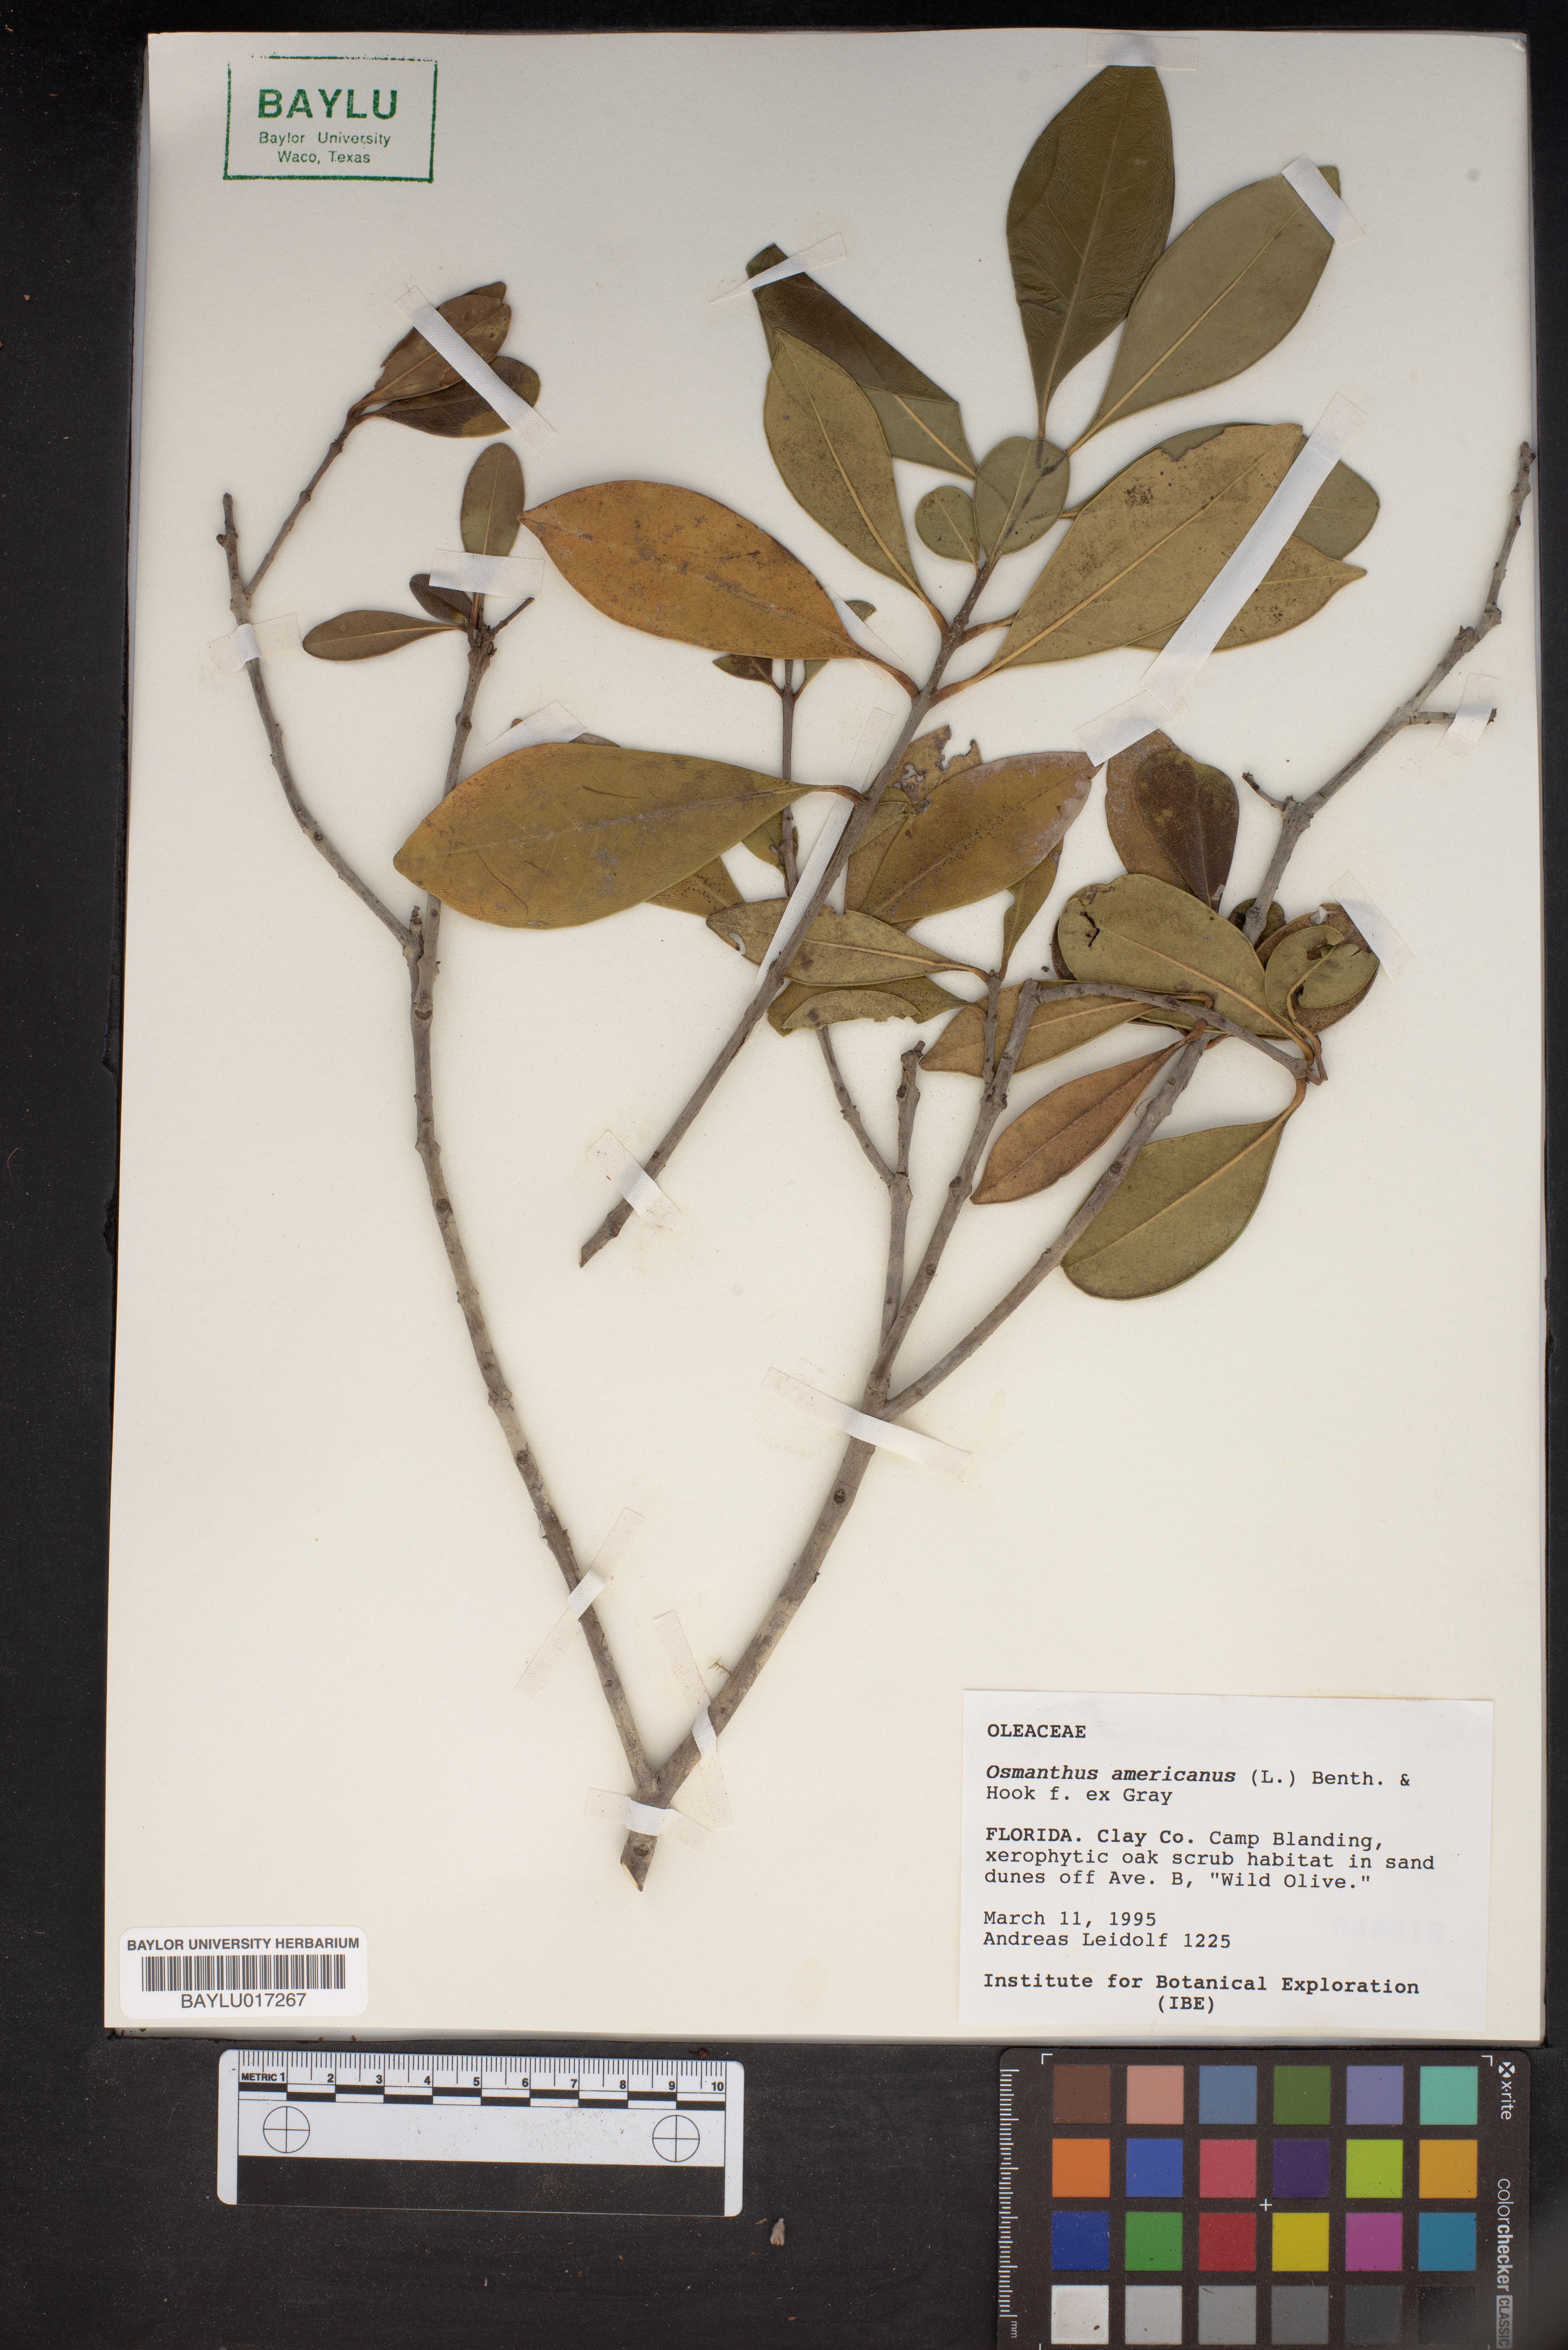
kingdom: Plantae
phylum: Tracheophyta
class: Magnoliopsida
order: Lamiales
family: Oleaceae
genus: Osmanthus
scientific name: Osmanthus americanus
